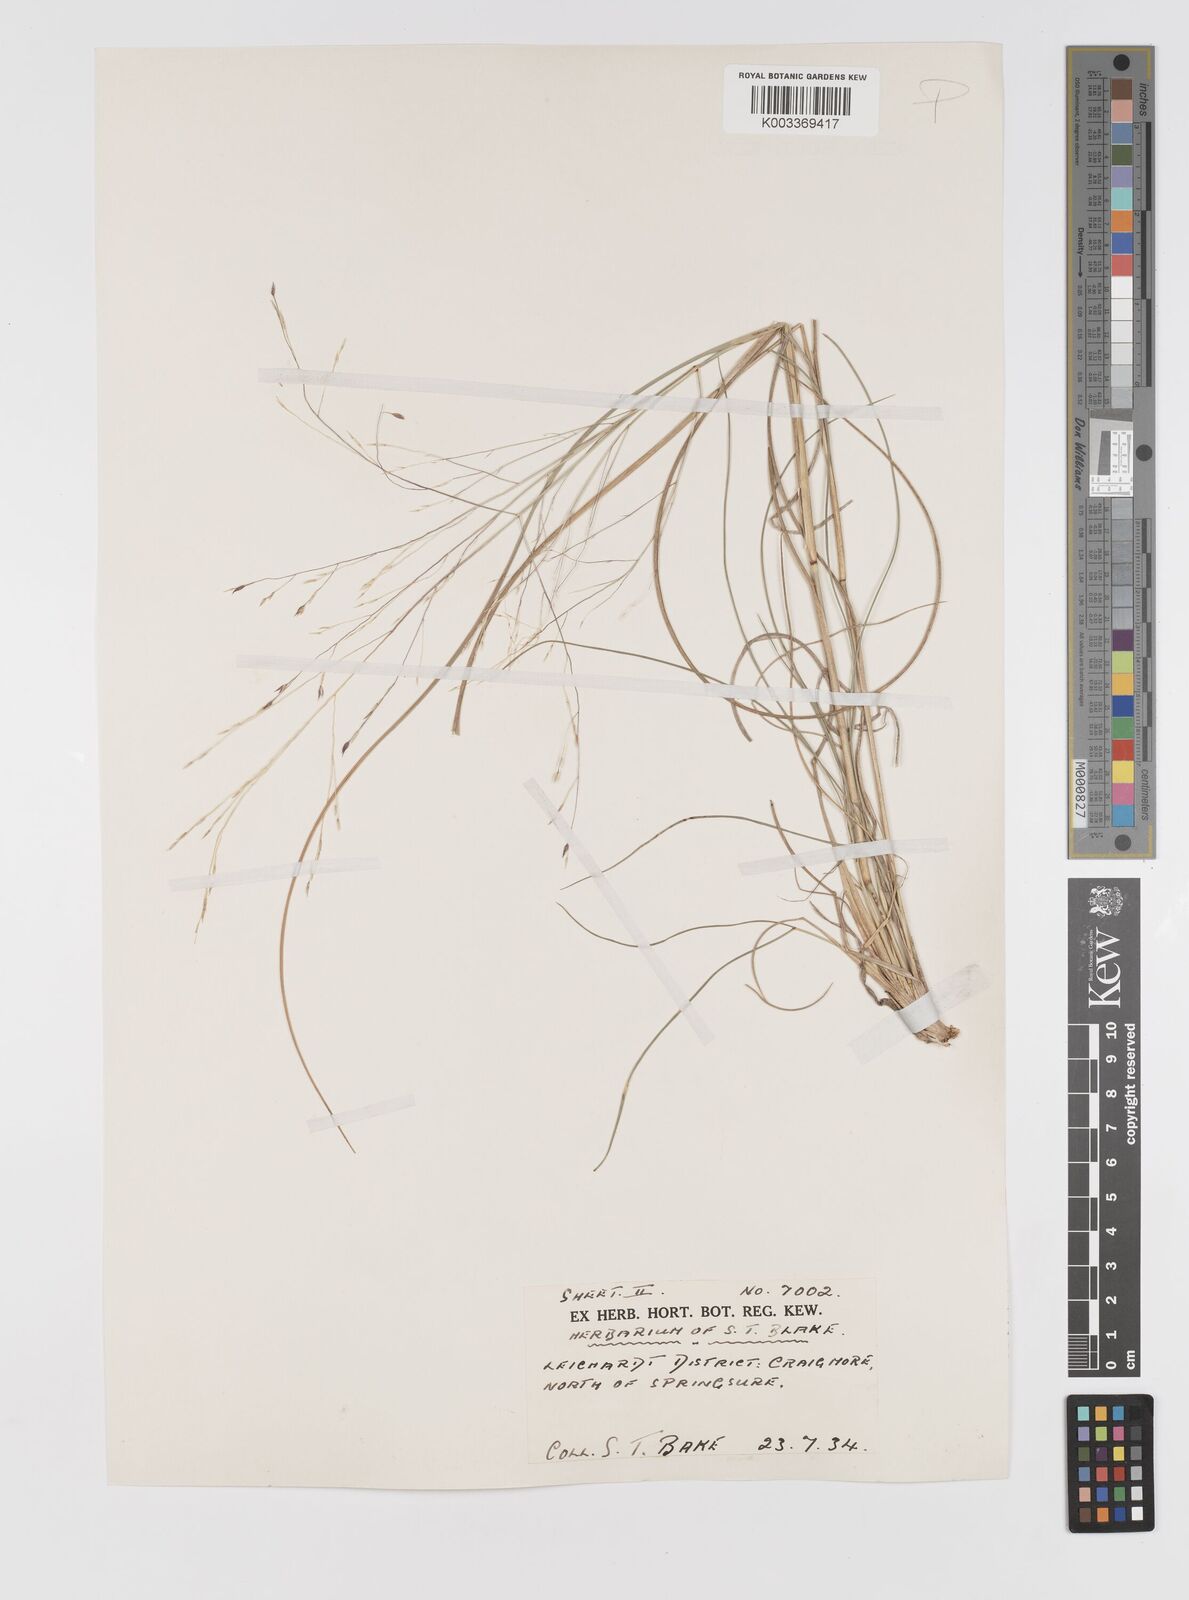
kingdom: Plantae
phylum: Tracheophyta
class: Liliopsida
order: Poales
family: Poaceae
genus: Panicum
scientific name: Panicum queenslandicum
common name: Yabila grass
